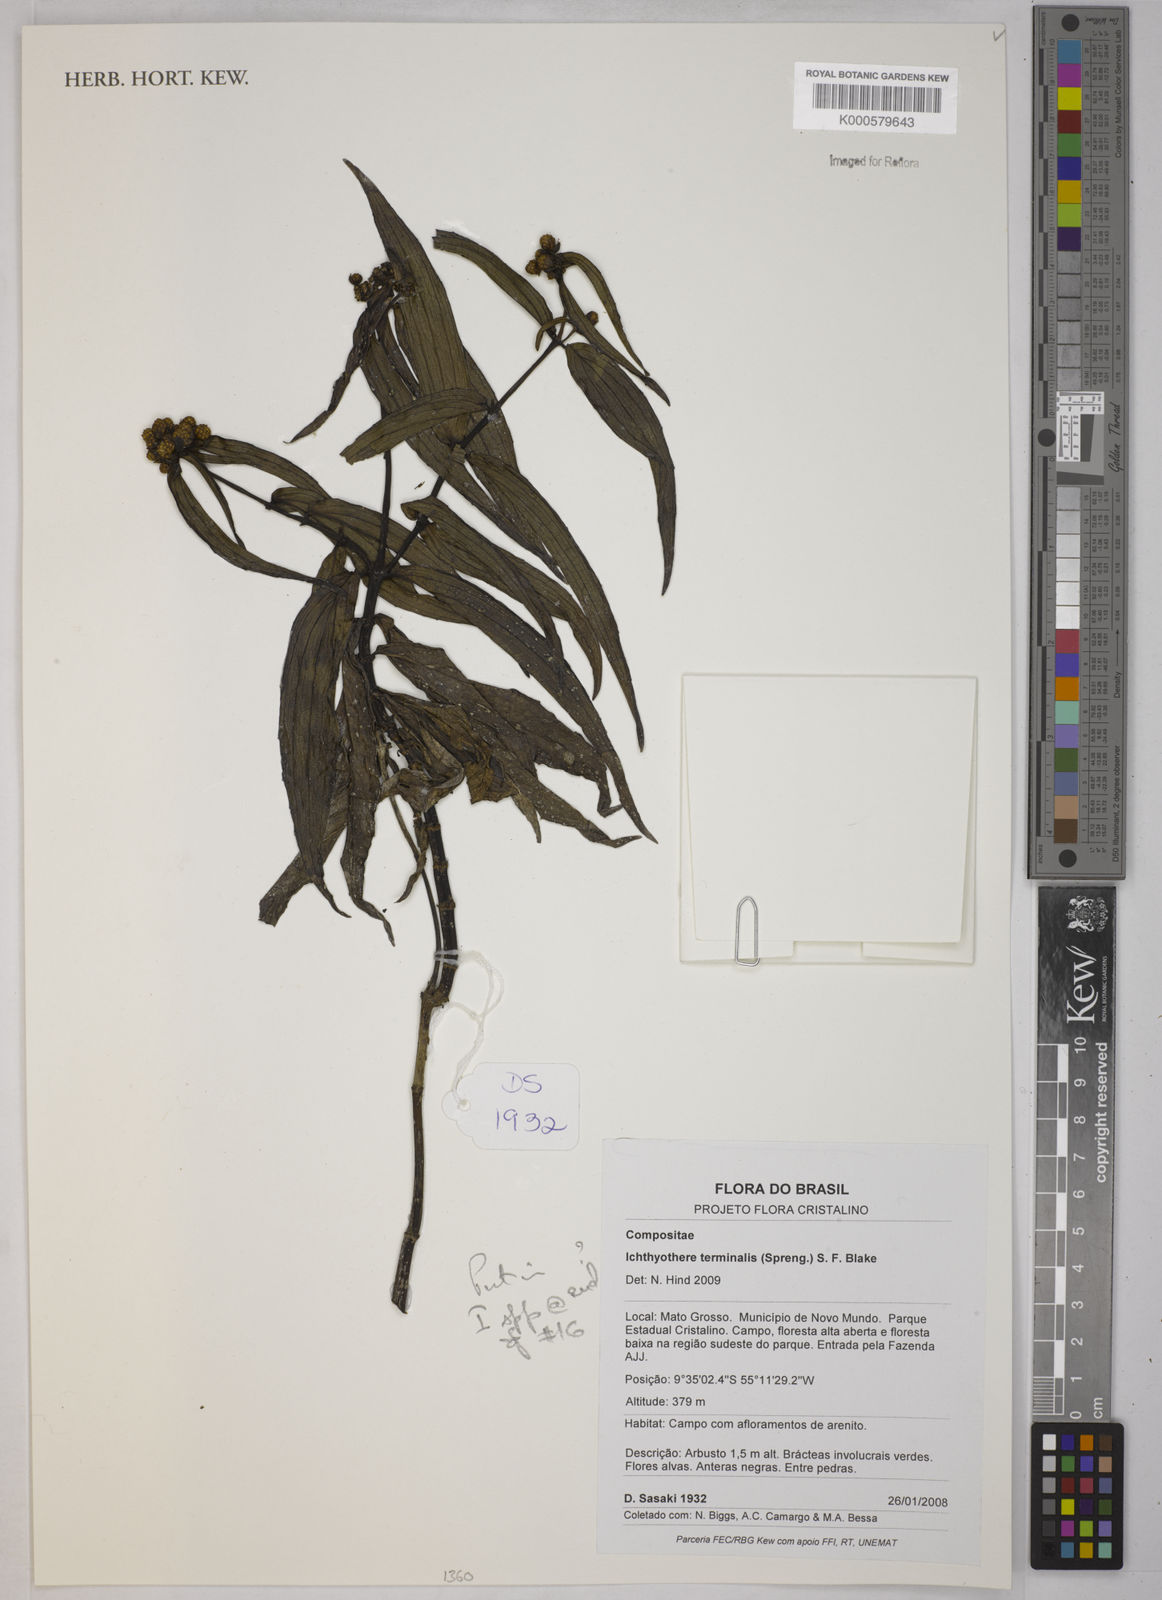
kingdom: Plantae
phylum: Tracheophyta
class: Magnoliopsida
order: Asterales
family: Asteraceae
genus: Ichthyothere
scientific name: Ichthyothere terminalis
